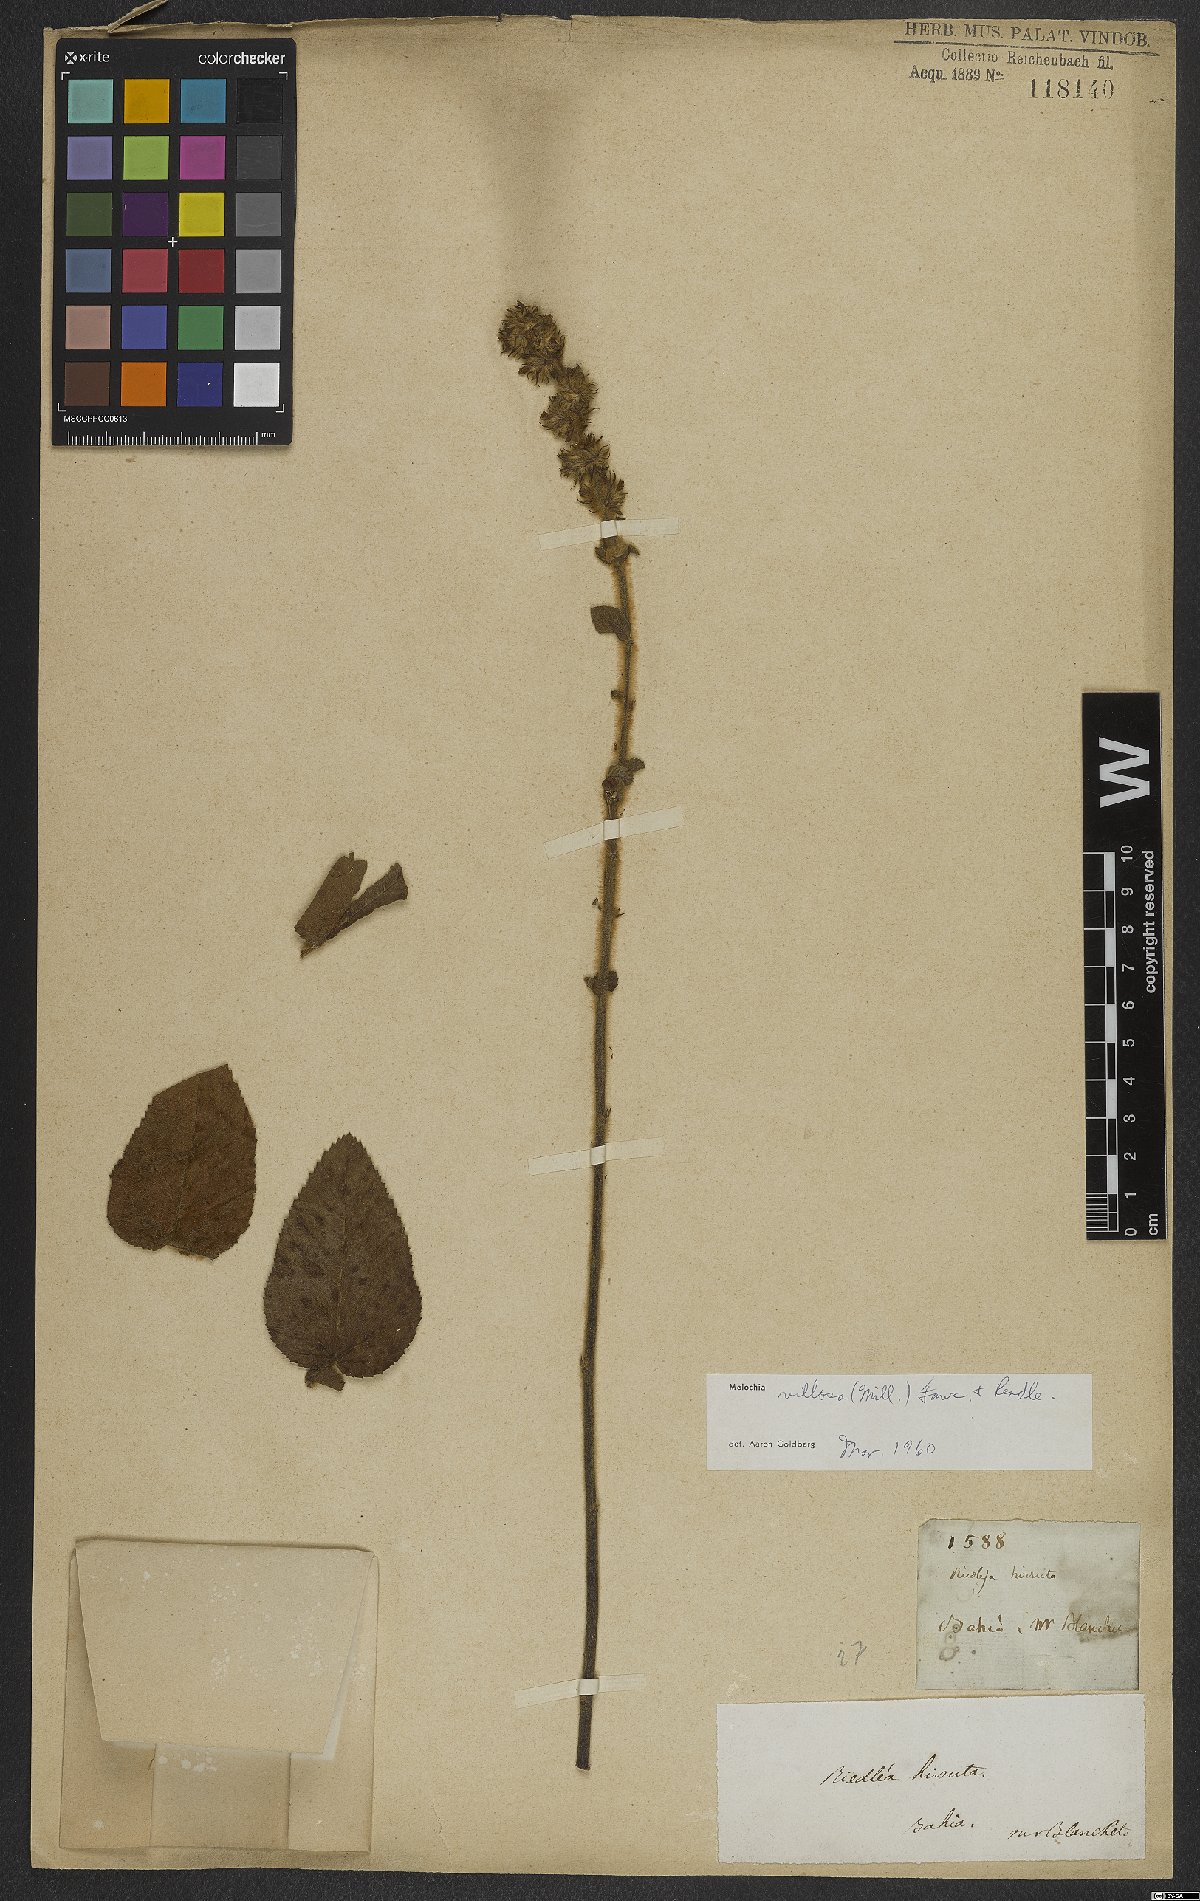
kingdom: Plantae
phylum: Tracheophyta
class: Magnoliopsida
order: Malvales
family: Malvaceae
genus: Melochia
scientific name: Melochia spicata
